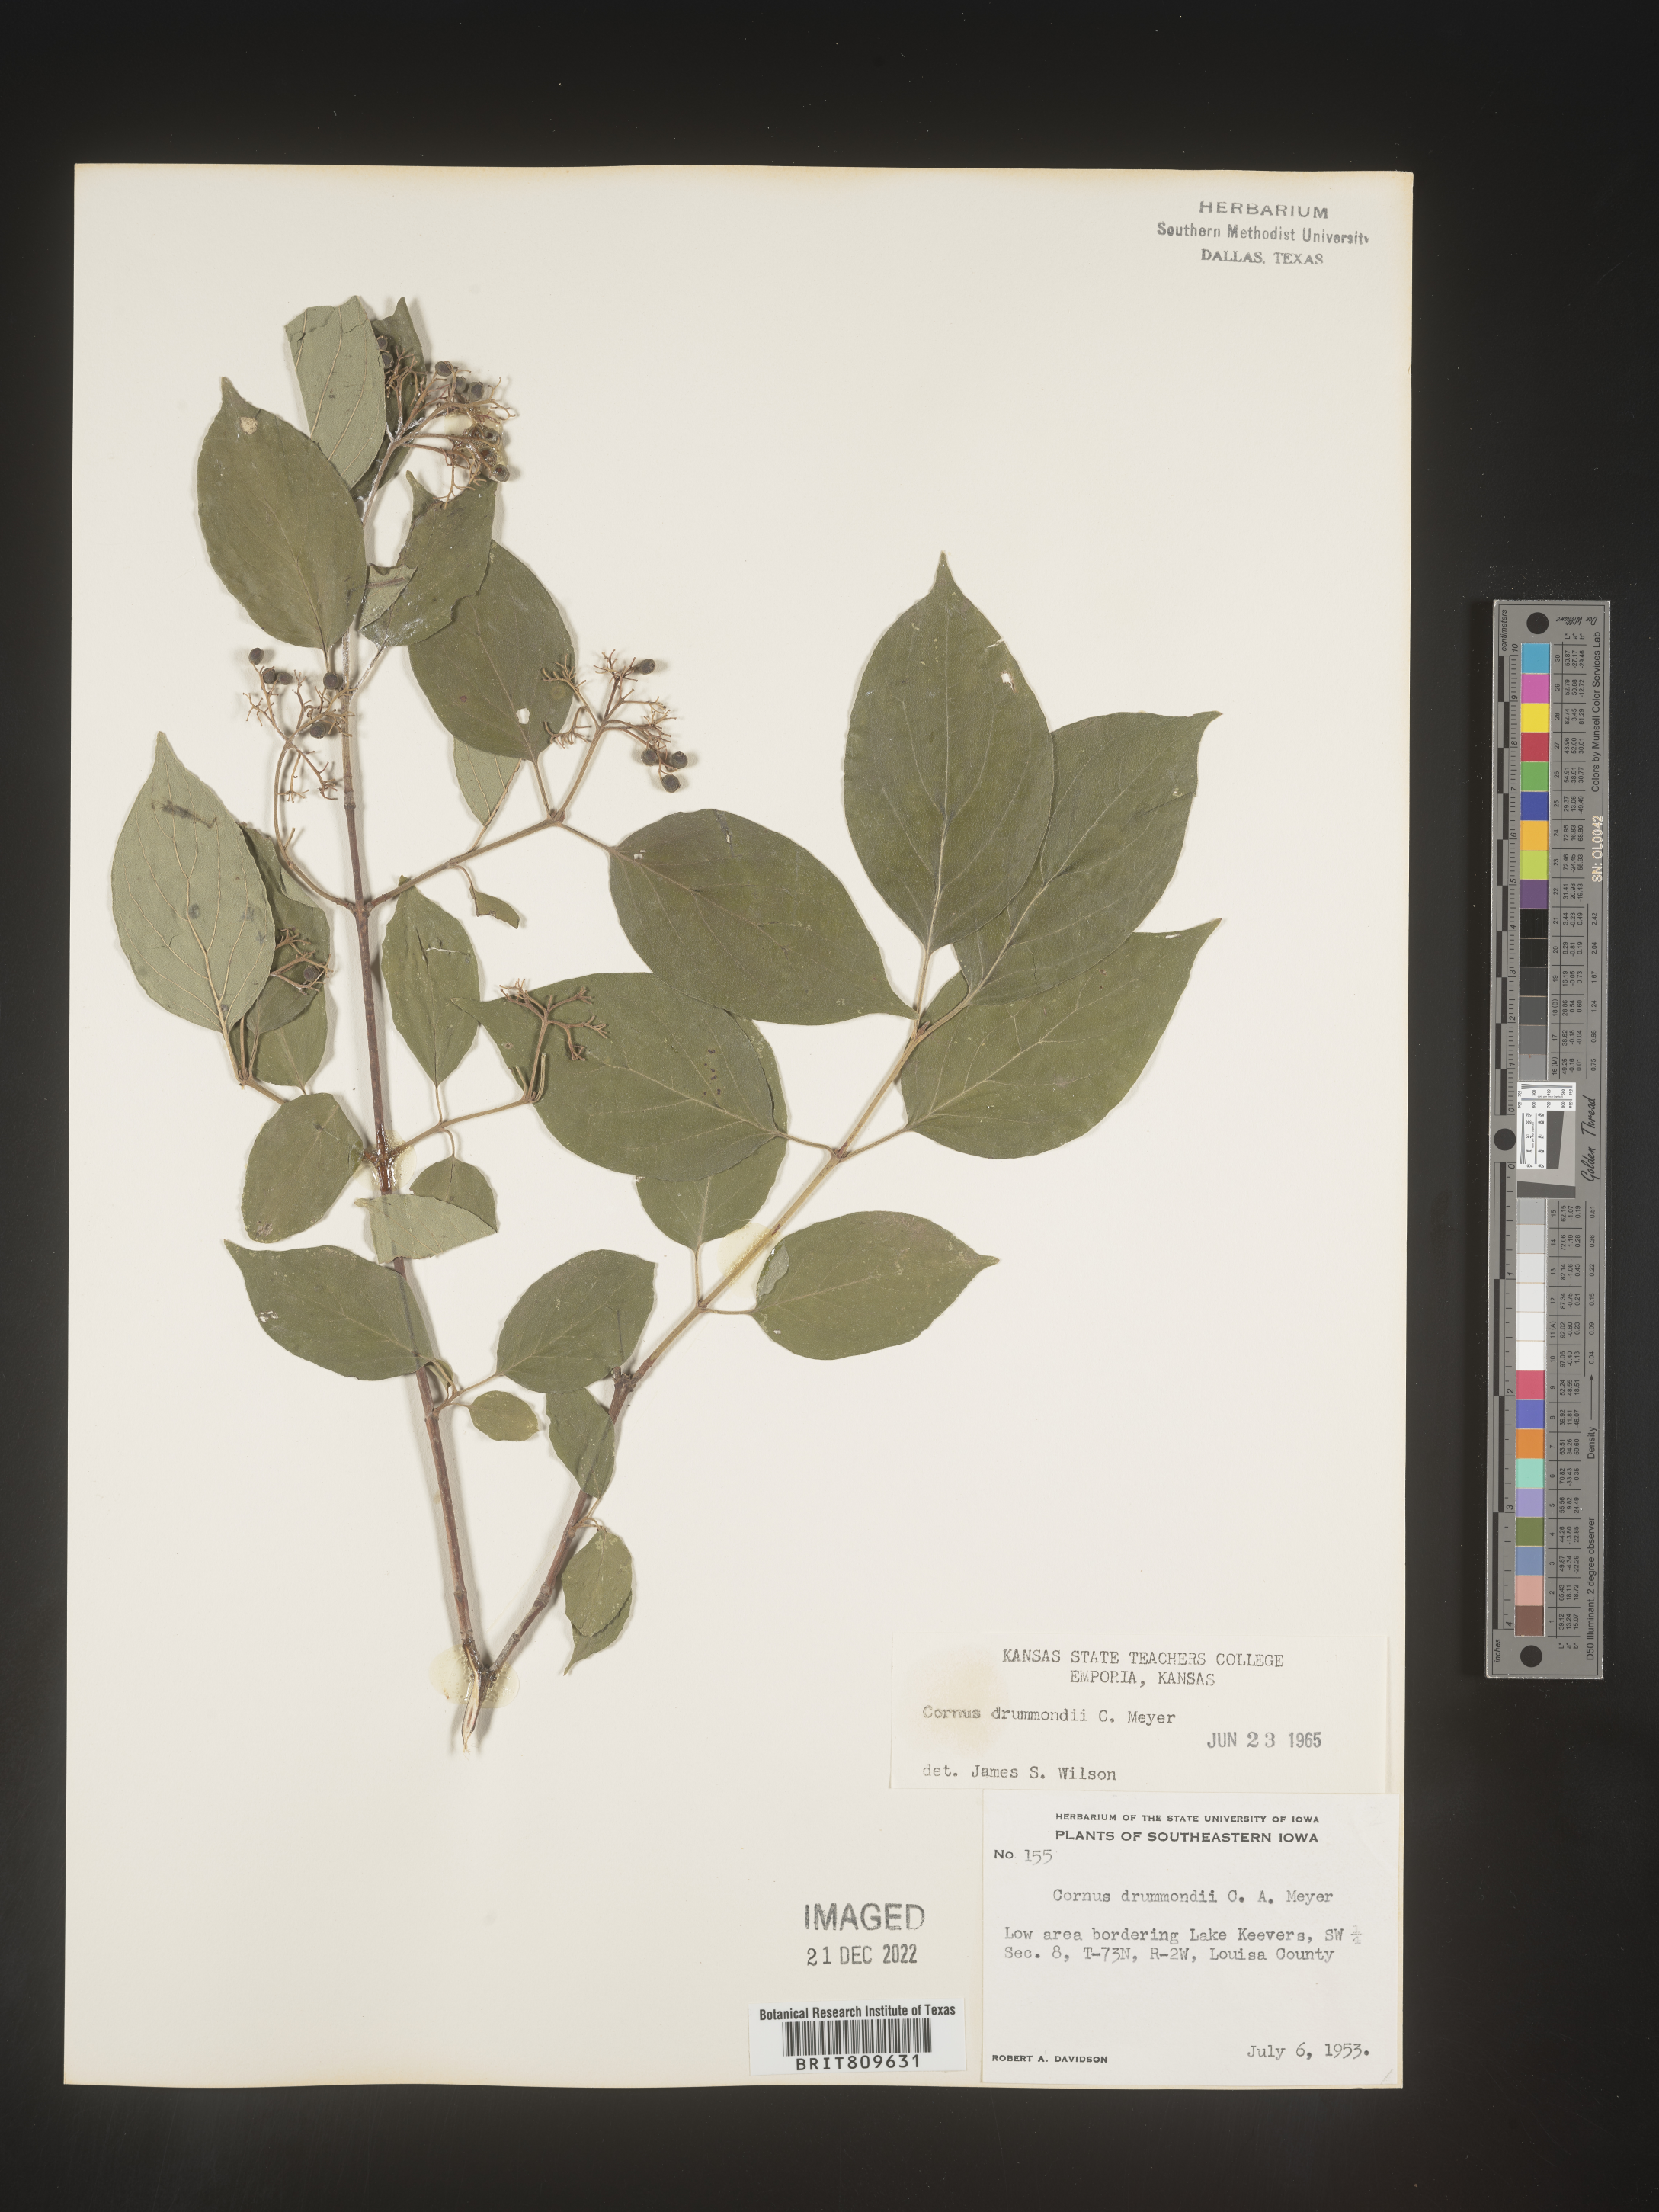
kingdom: Plantae
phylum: Tracheophyta
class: Magnoliopsida
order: Cornales
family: Cornaceae
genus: Cornus
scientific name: Cornus drummondii
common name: Rough-leaf dogwood
